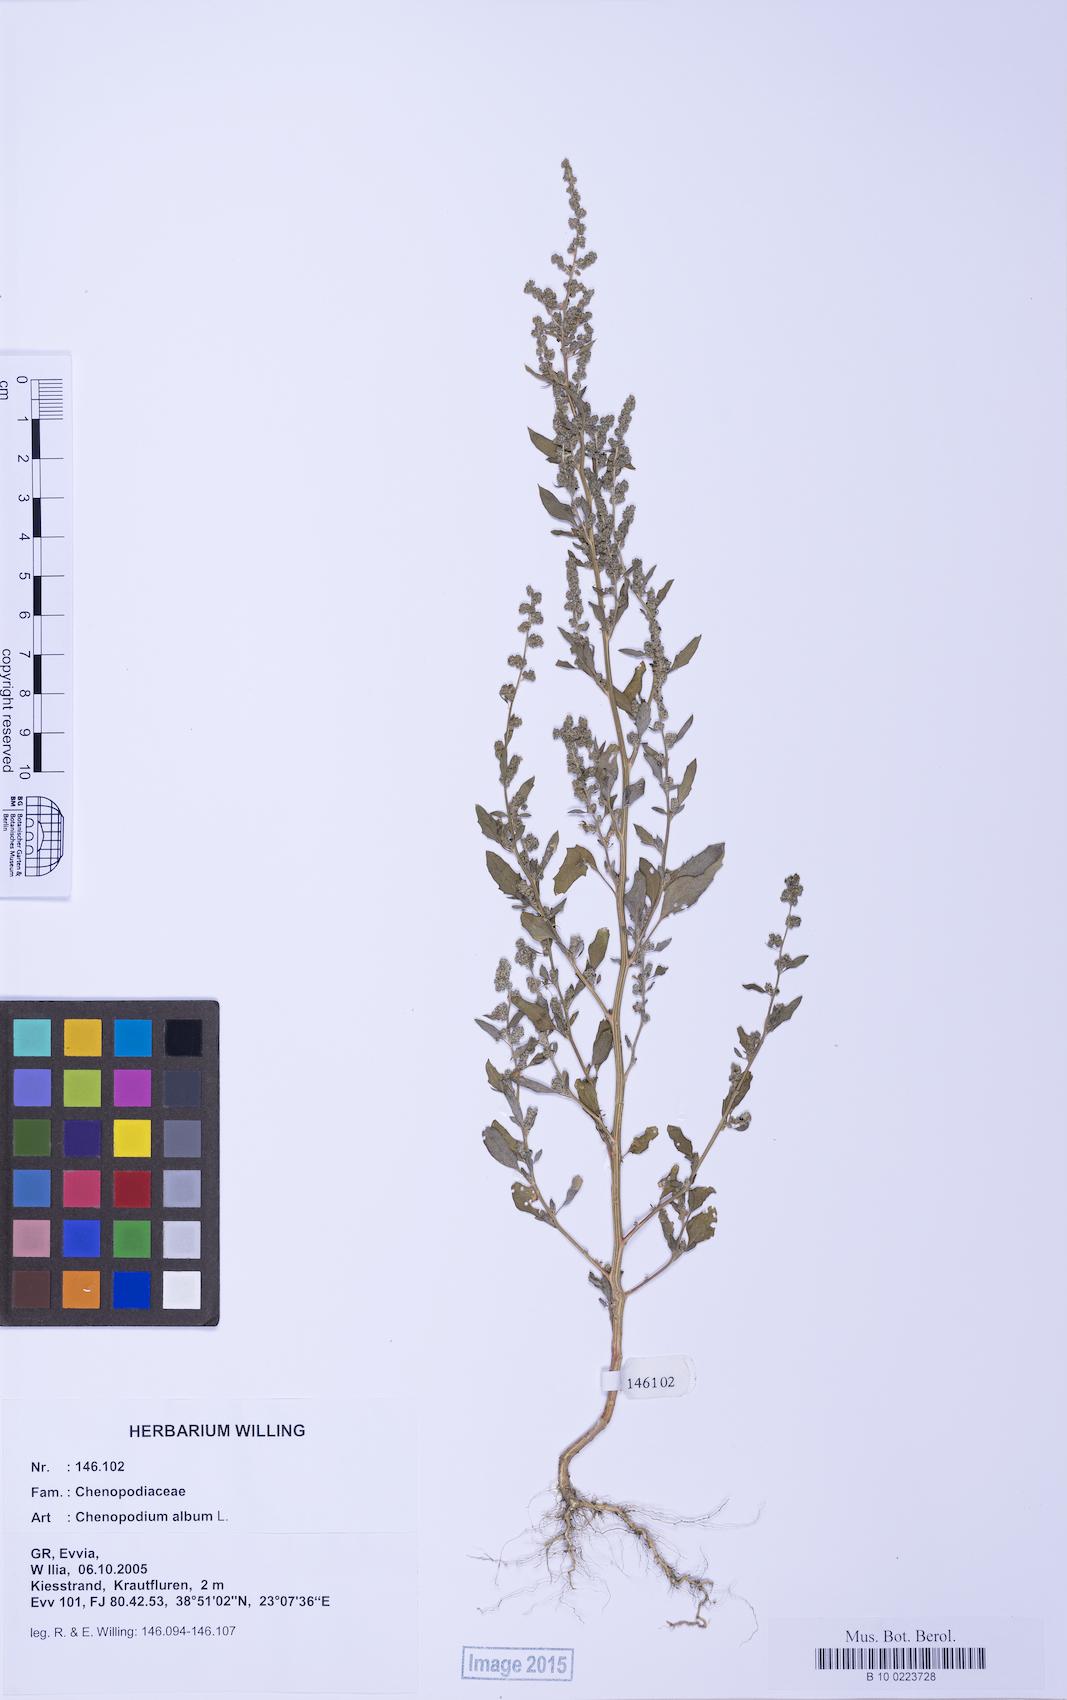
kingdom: Plantae
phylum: Tracheophyta
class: Magnoliopsida
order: Caryophyllales
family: Amaranthaceae
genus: Chenopodium
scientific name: Chenopodium album
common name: Fat-hen
